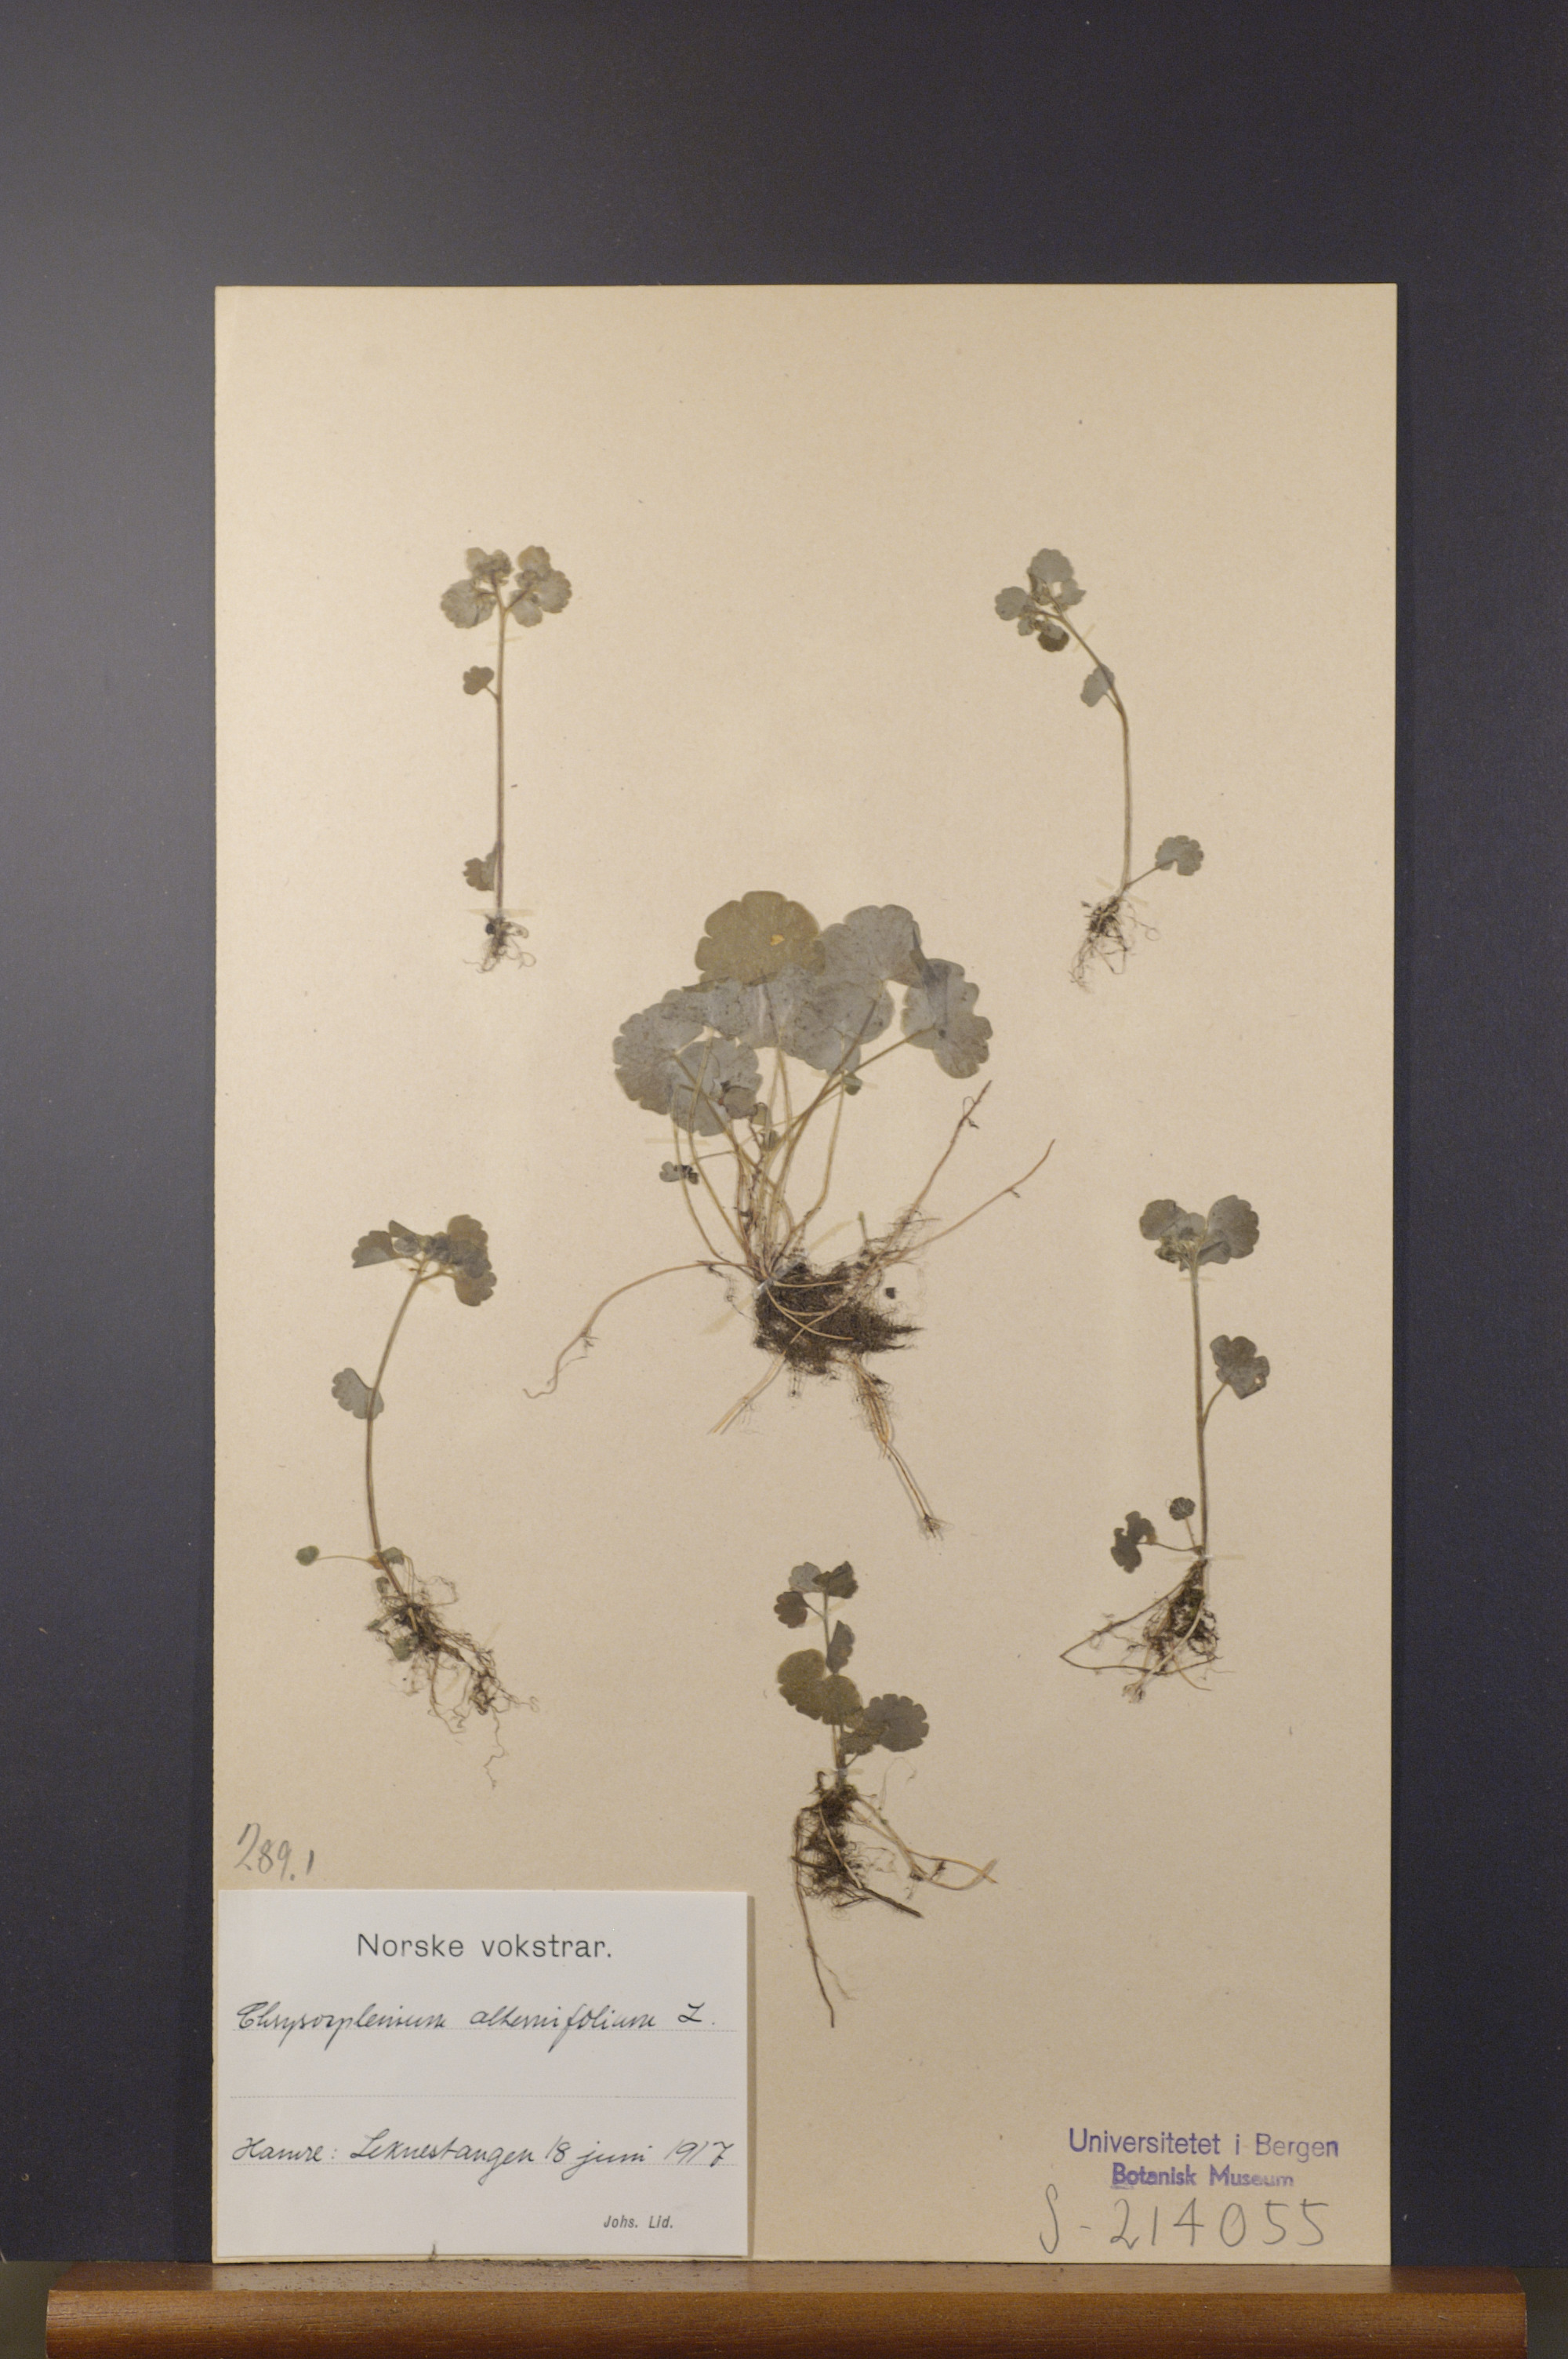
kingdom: Plantae
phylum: Tracheophyta
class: Magnoliopsida
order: Saxifragales
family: Saxifragaceae
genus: Chrysosplenium
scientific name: Chrysosplenium alternifolium
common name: Alternate-leaved golden-saxifrage
